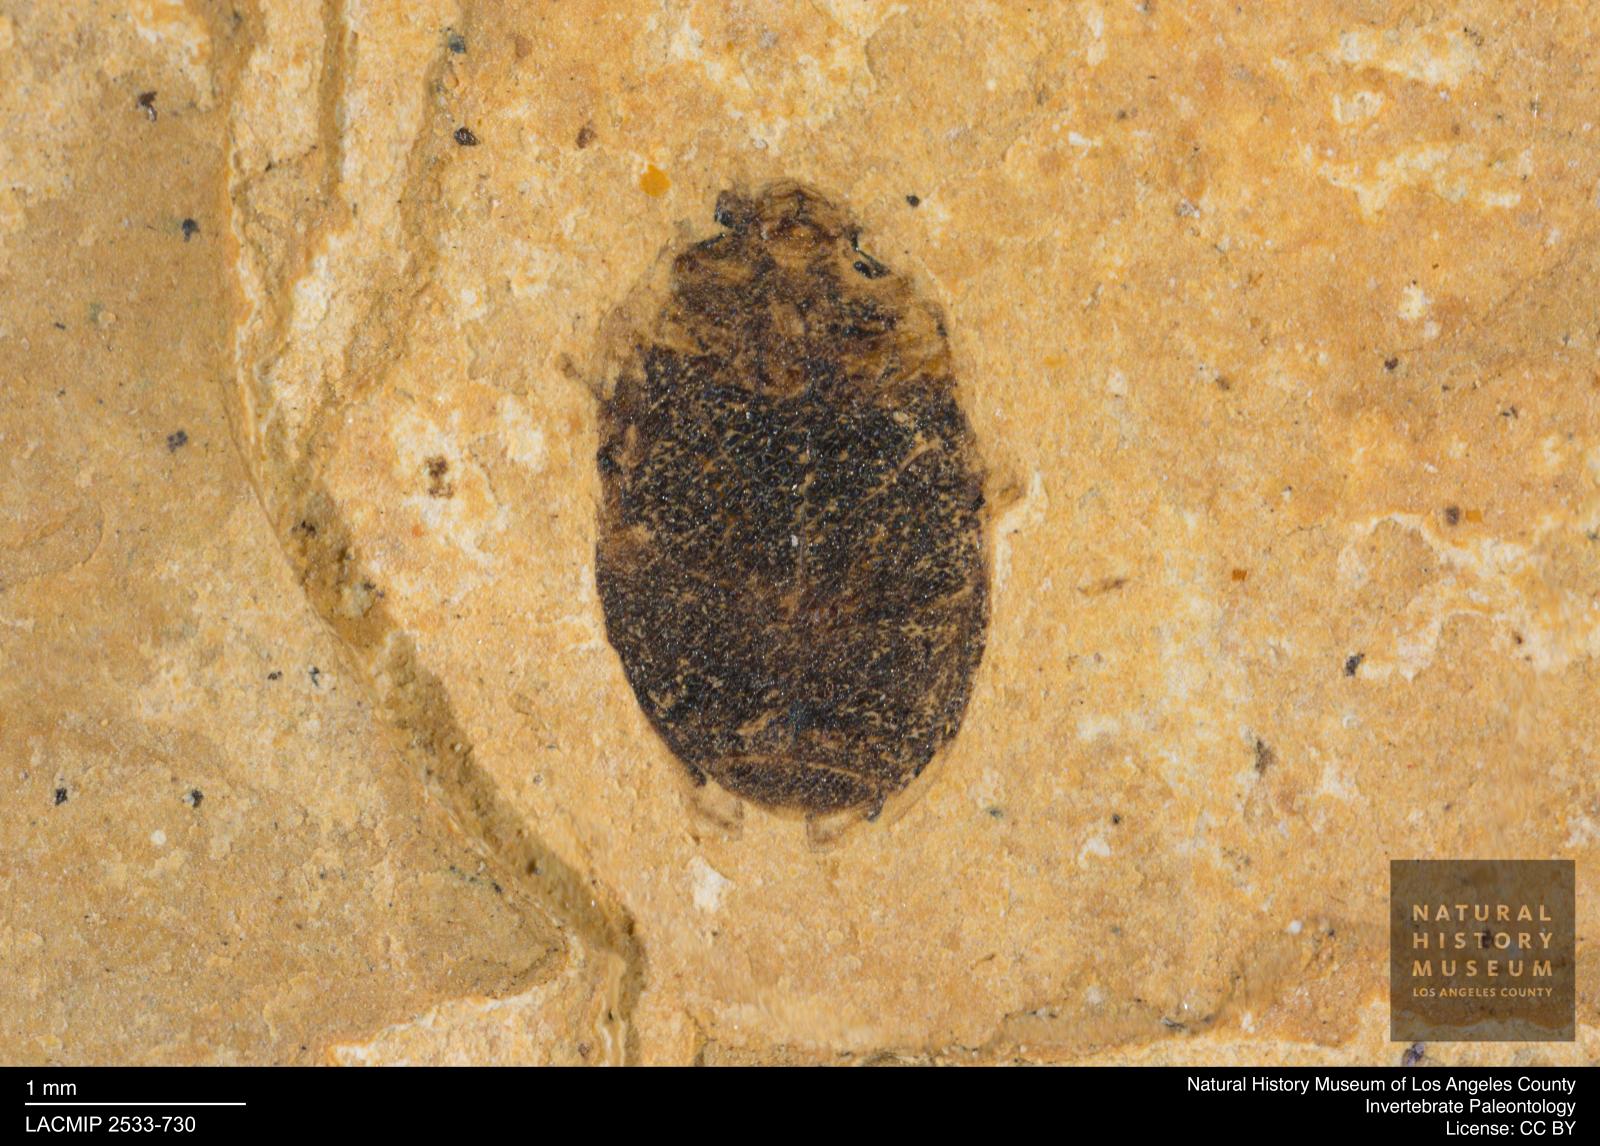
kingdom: Animalia
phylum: Arthropoda
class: Insecta
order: Coleoptera
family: Dytiscidae
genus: Oreodytes
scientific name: Oreodytes cryptolineatus
